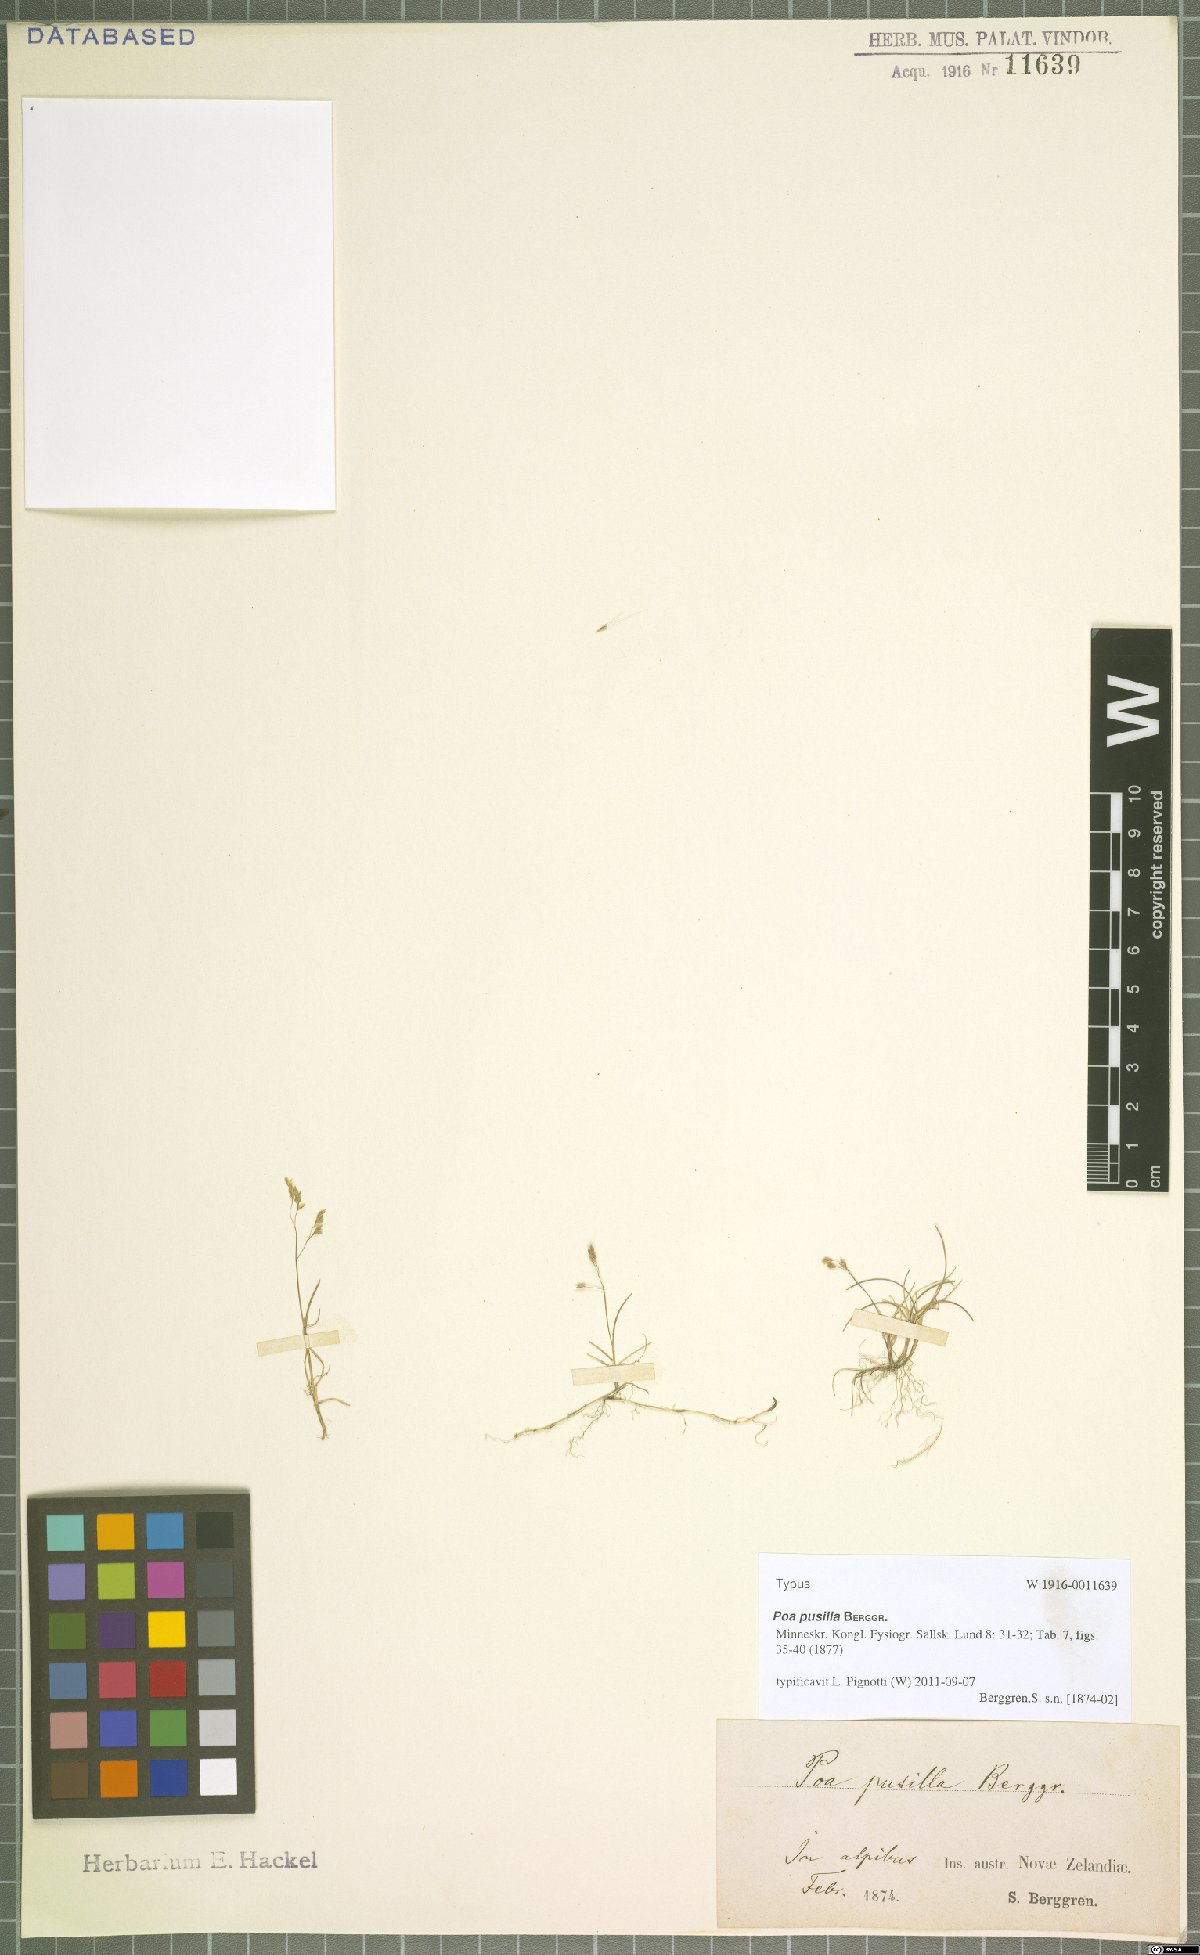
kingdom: Plantae
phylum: Tracheophyta
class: Liliopsida
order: Poales
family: Poaceae
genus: Poa
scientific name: Poa pusilla
